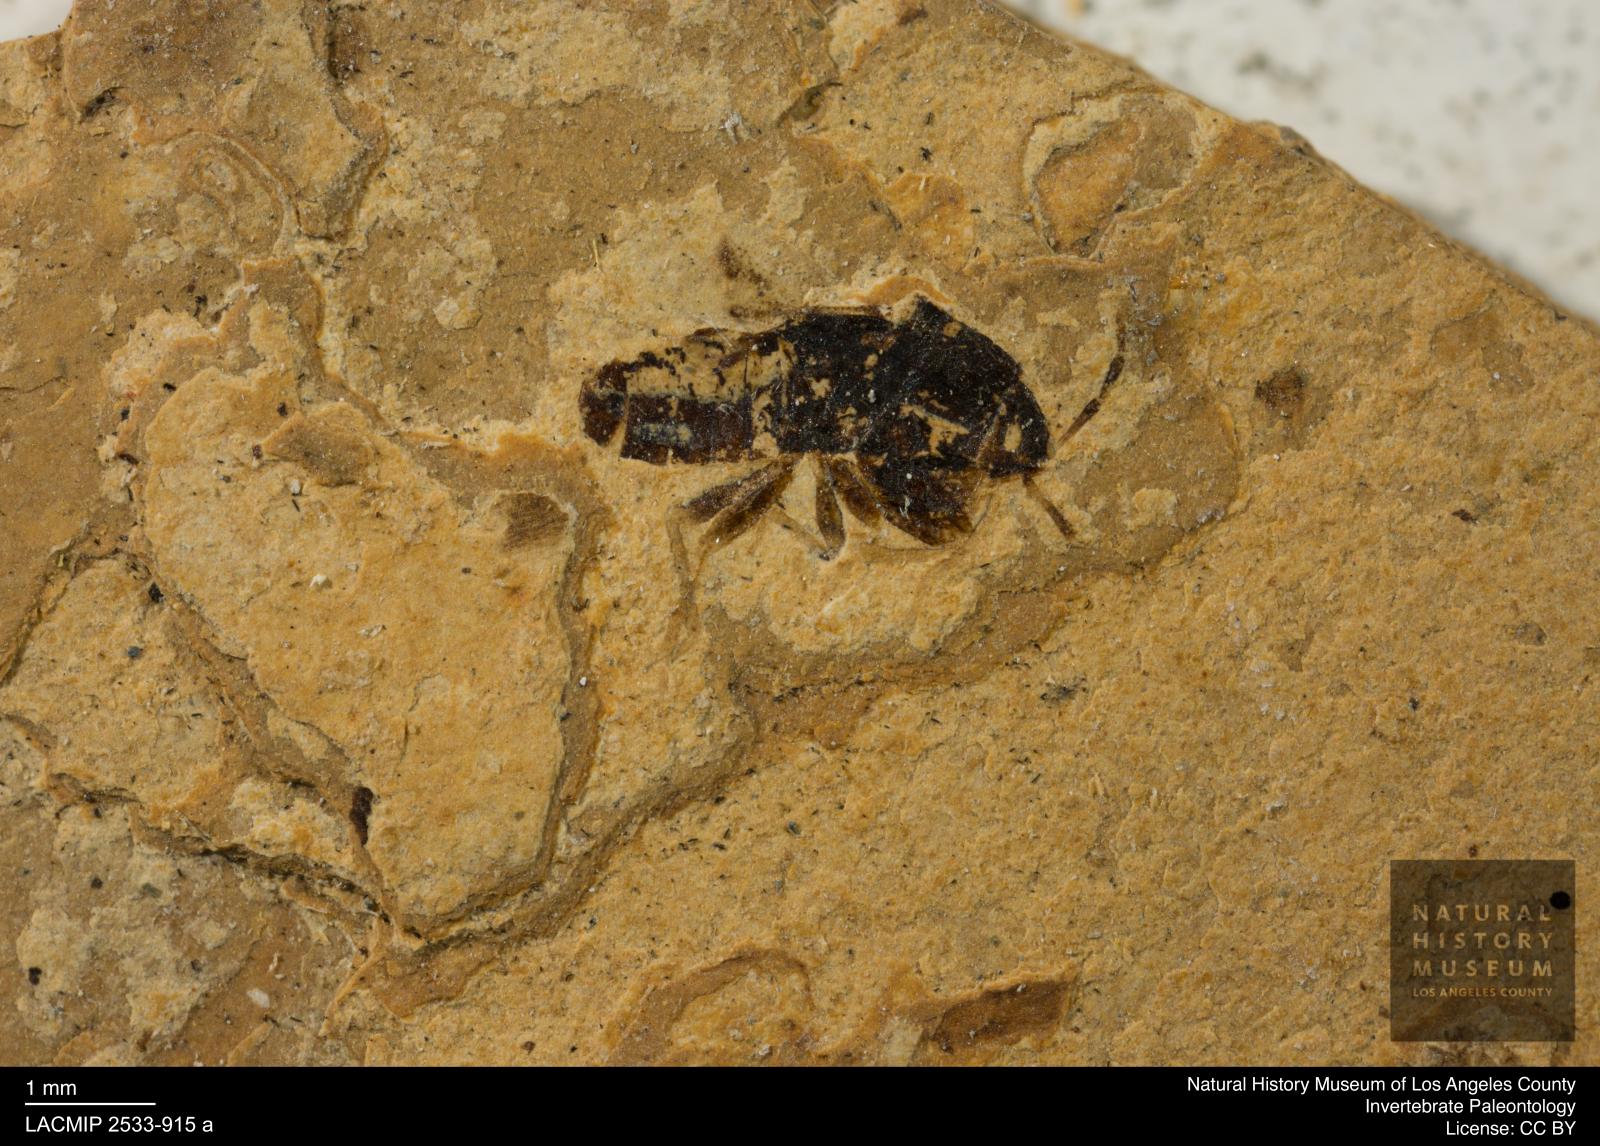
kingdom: Animalia
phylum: Arthropoda
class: Insecta
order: Hemiptera
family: Lygaeidae
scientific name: Lygaeidae
